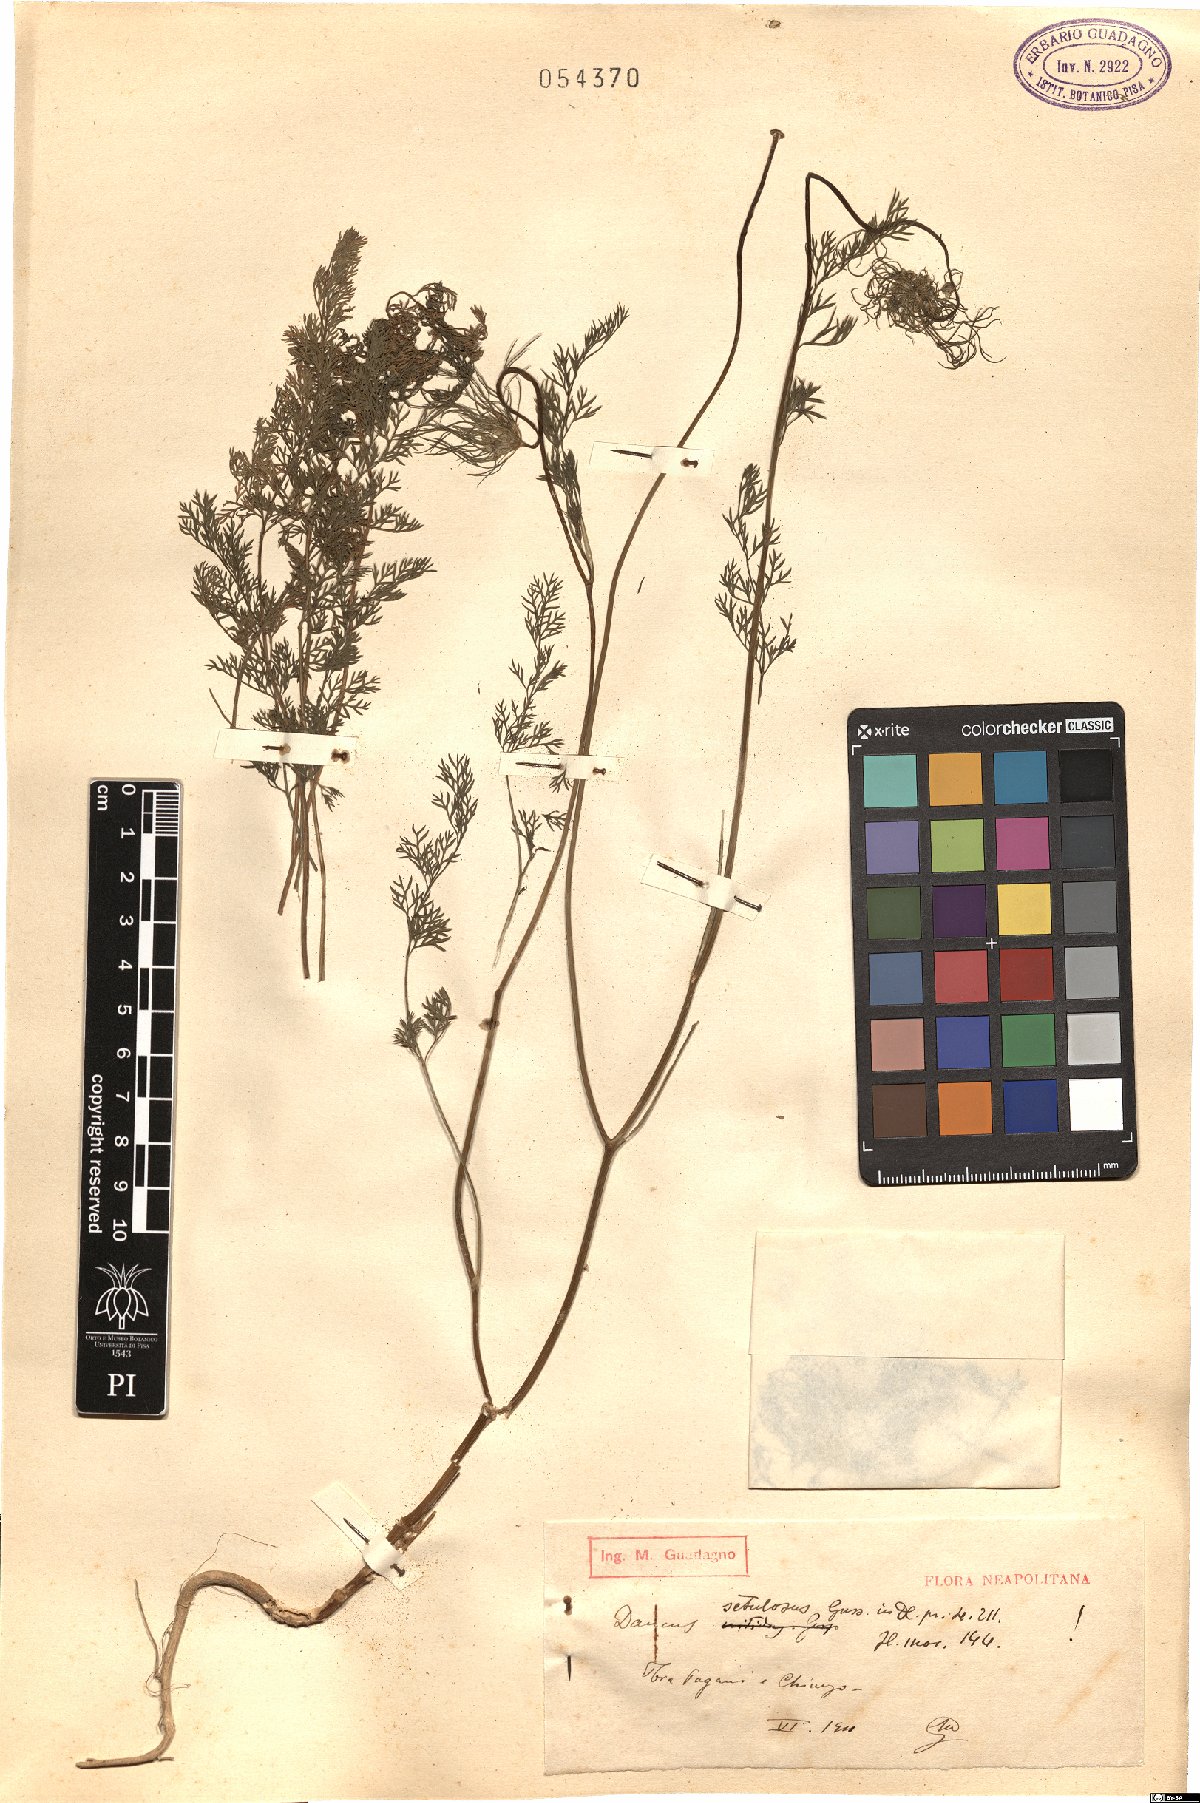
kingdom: Plantae
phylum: Tracheophyta
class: Magnoliopsida
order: Apiales
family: Apiaceae
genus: Daucus
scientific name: Daucus guttatus
